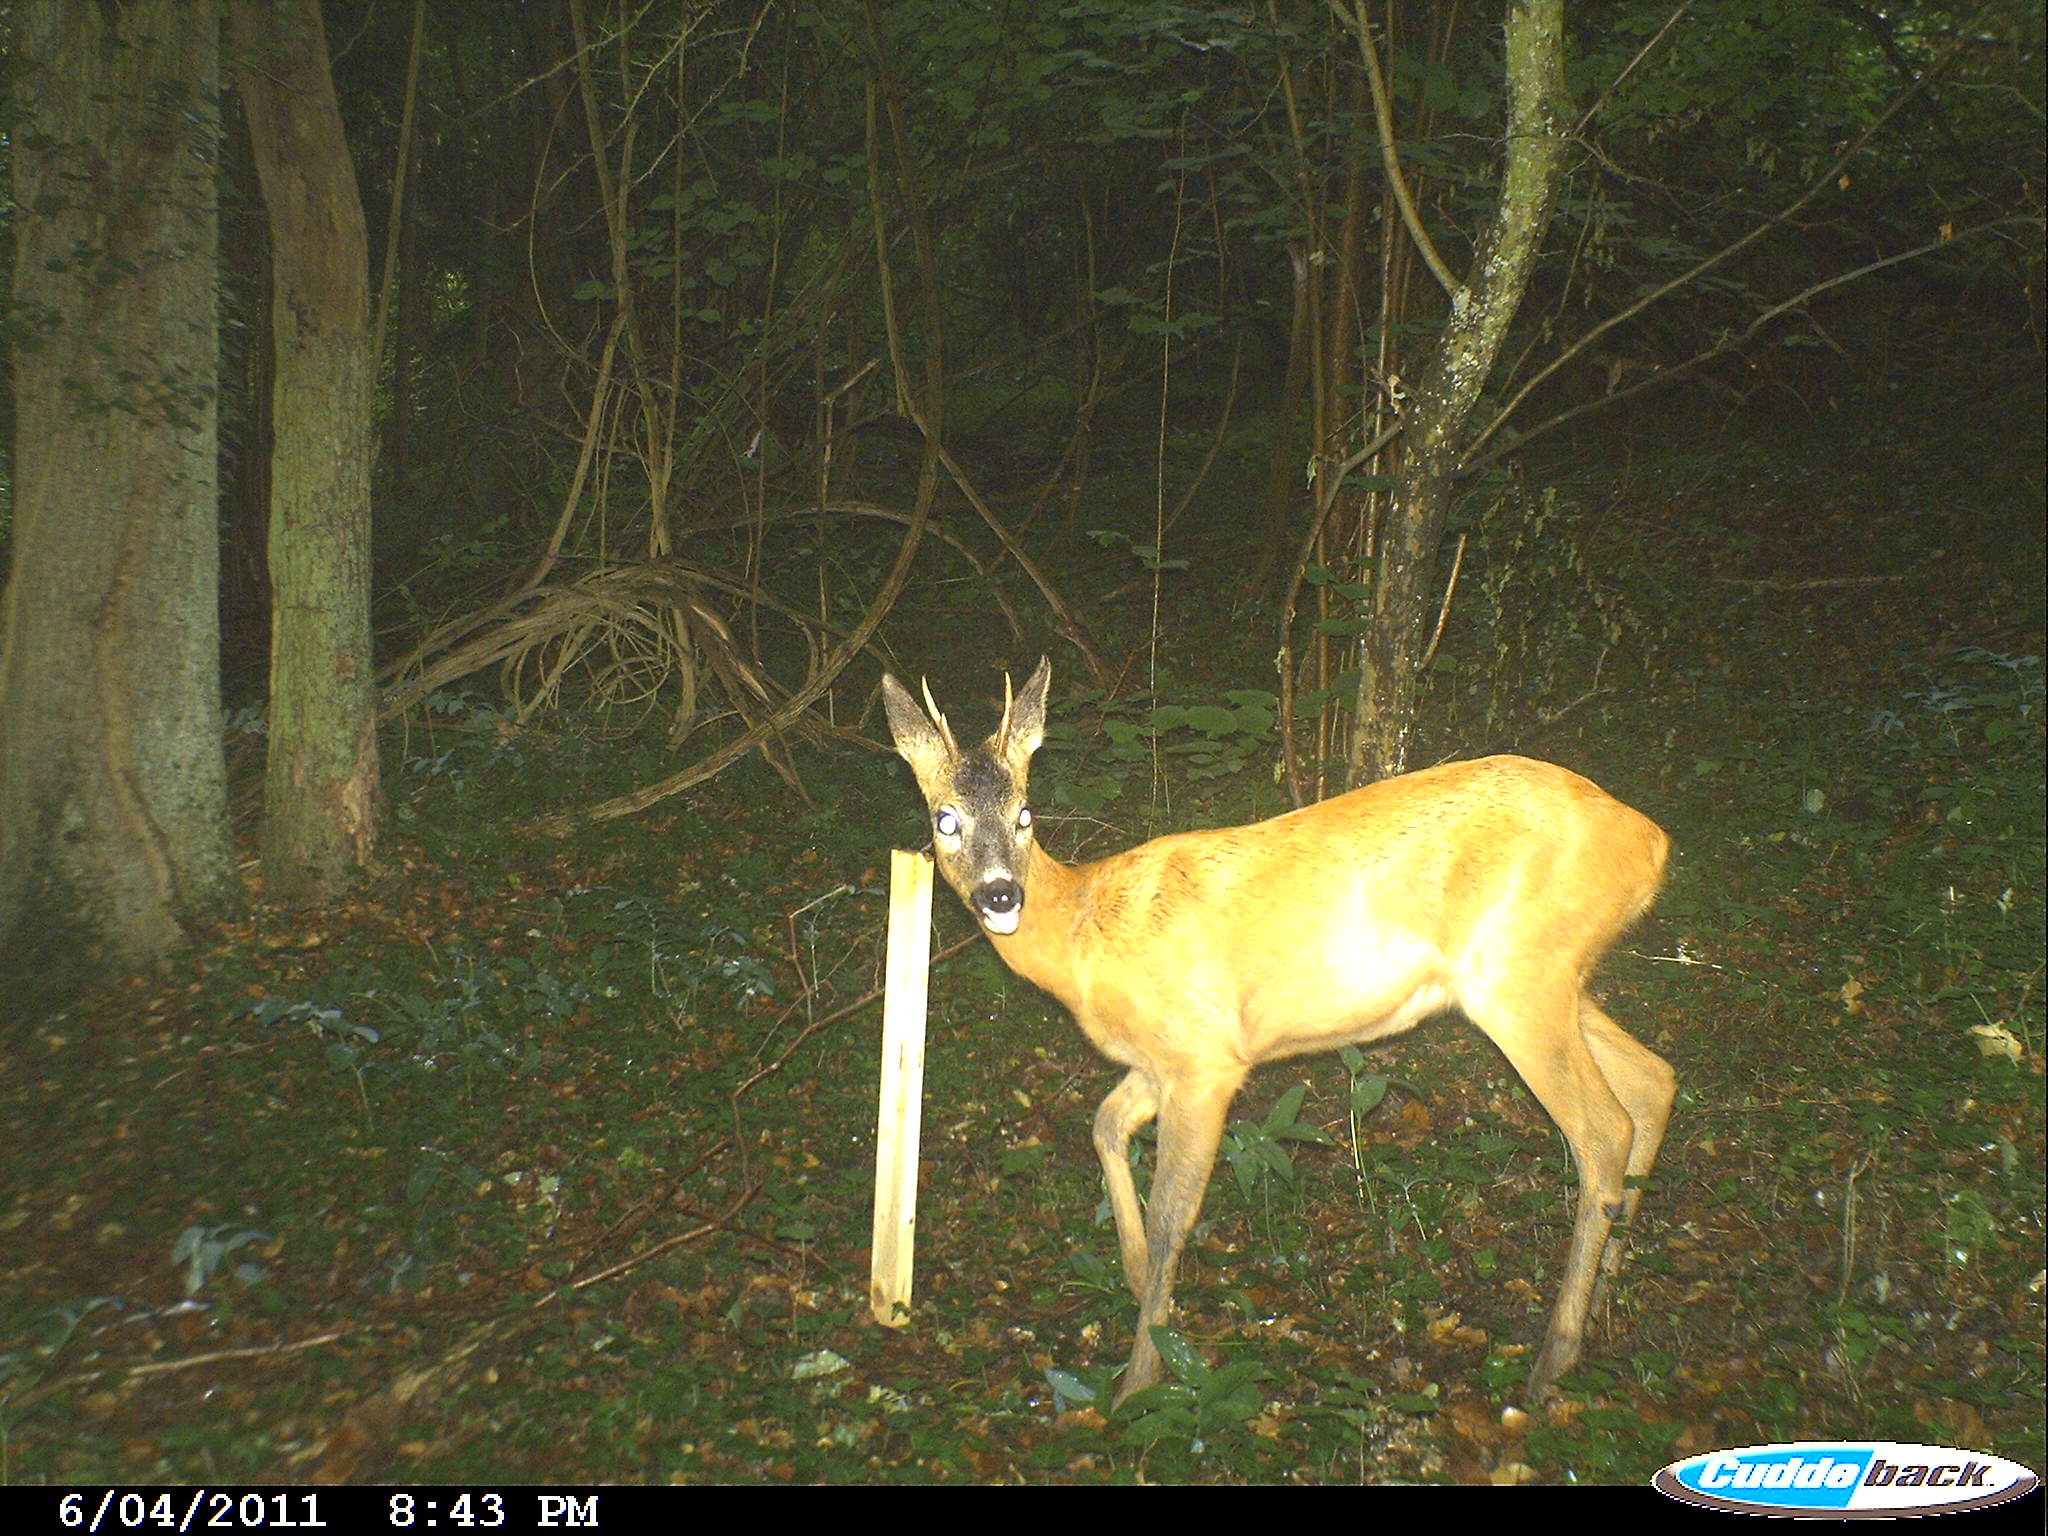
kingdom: Animalia
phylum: Chordata
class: Mammalia
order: Artiodactyla
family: Cervidae
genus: Capreolus
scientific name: Capreolus capreolus
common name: Western roe deer
